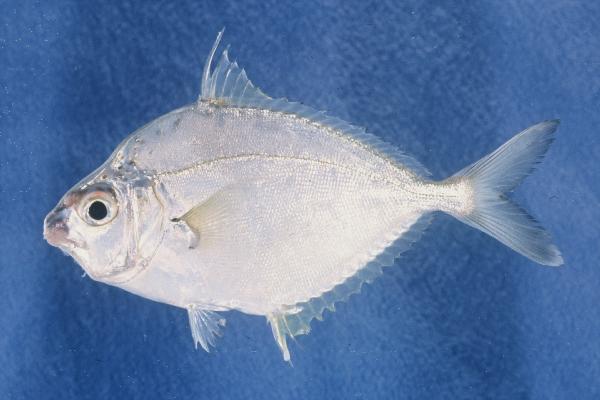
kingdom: Animalia
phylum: Chordata
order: Perciformes
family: Leiognathidae
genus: Leiognathus
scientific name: Leiognathus equulus
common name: Common ponyfish
